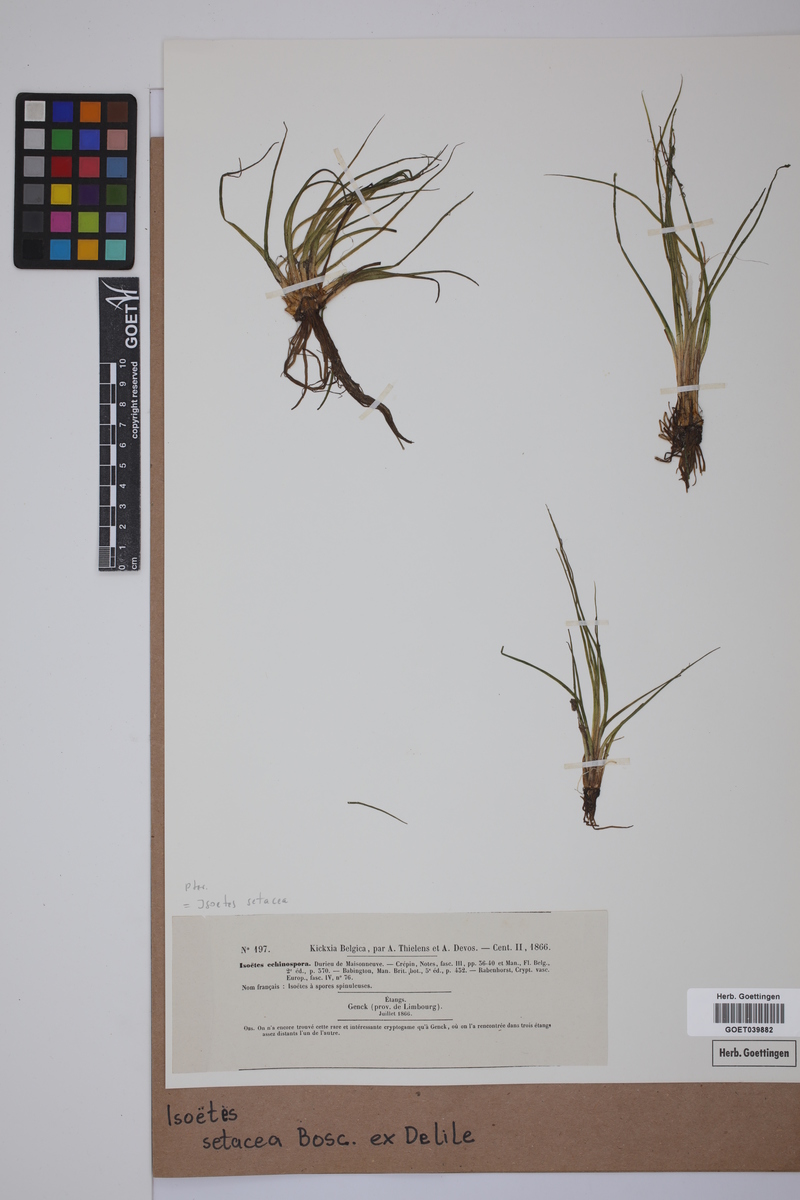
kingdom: Plantae
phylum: Tracheophyta
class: Lycopodiopsida
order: Isoetales
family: Isoetaceae
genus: Isoetes
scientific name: Isoetes longissima
